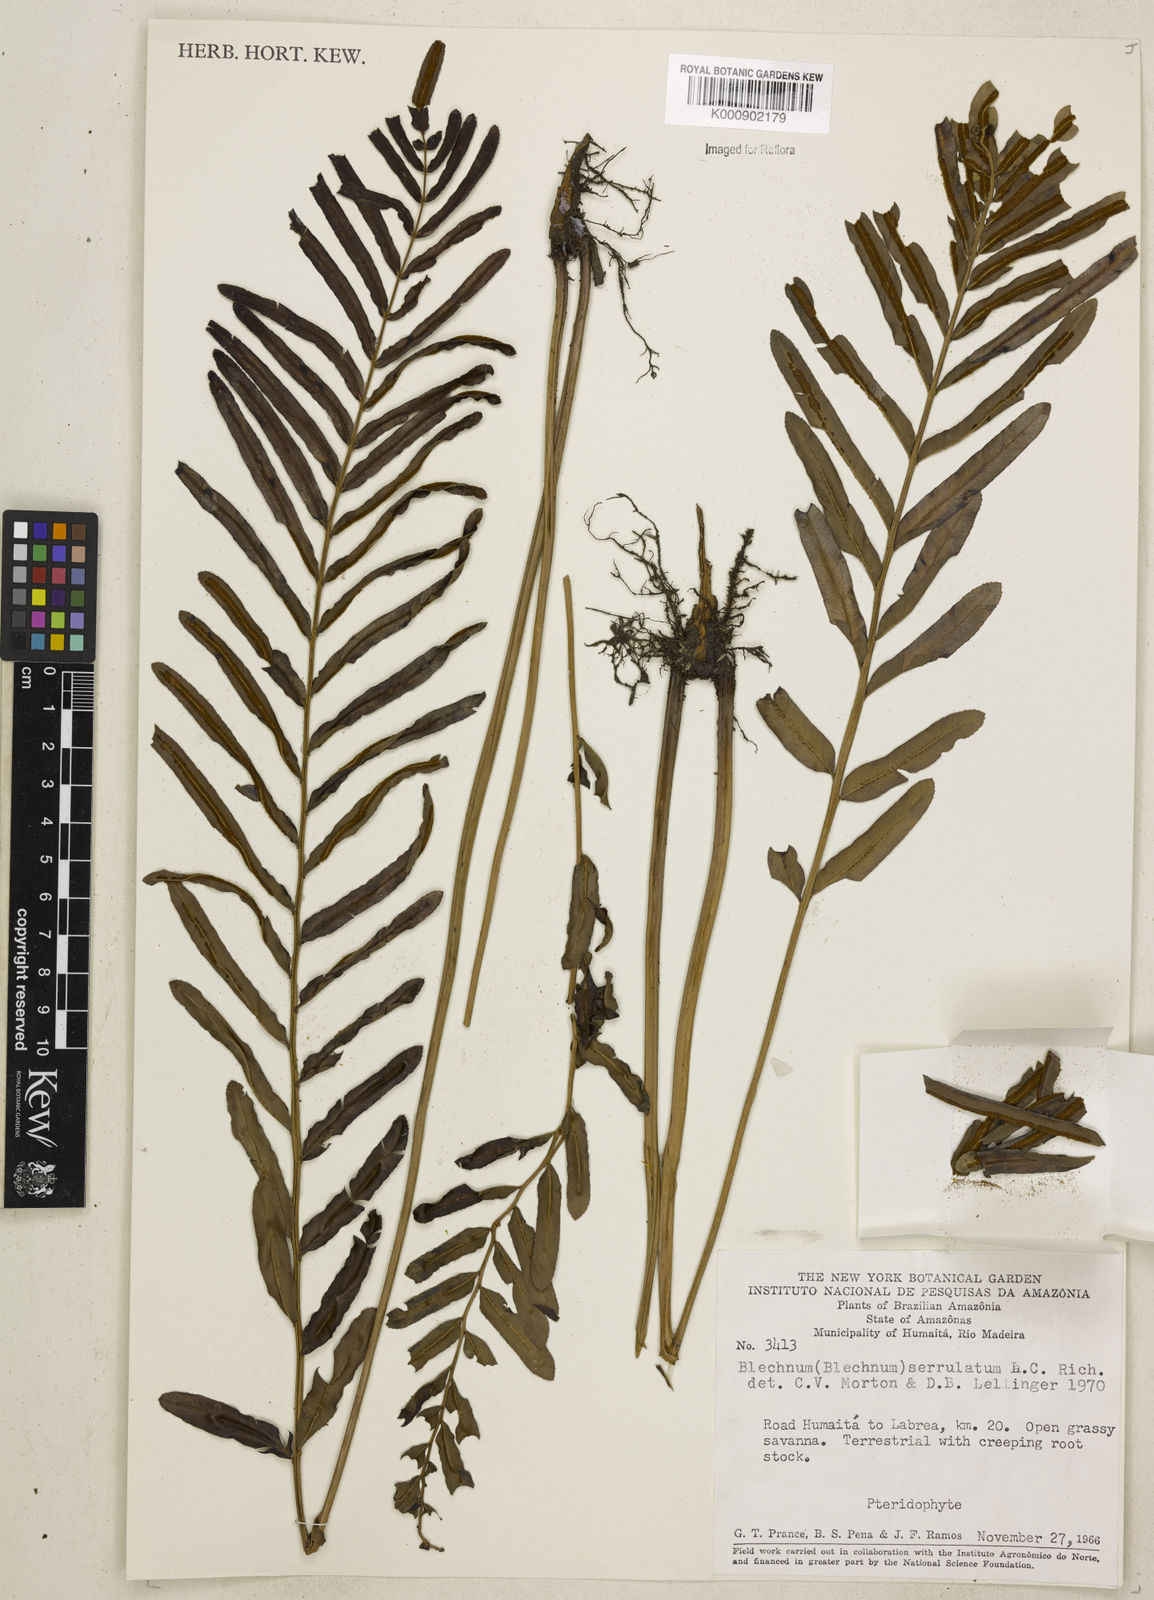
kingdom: Plantae
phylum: Tracheophyta
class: Polypodiopsida
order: Polypodiales
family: Blechnaceae
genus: Telmatoblechnum
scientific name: Telmatoblechnum serrulatum
